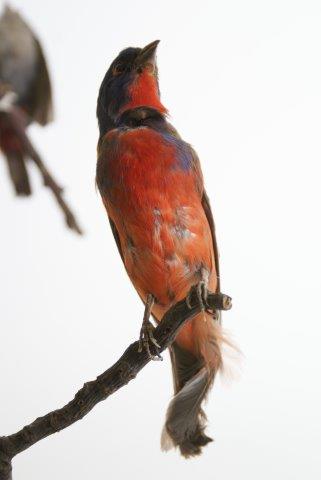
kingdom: Animalia
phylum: Chordata
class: Aves
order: Passeriformes
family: Cardinalidae
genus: Passerina
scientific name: Passerina ciris
